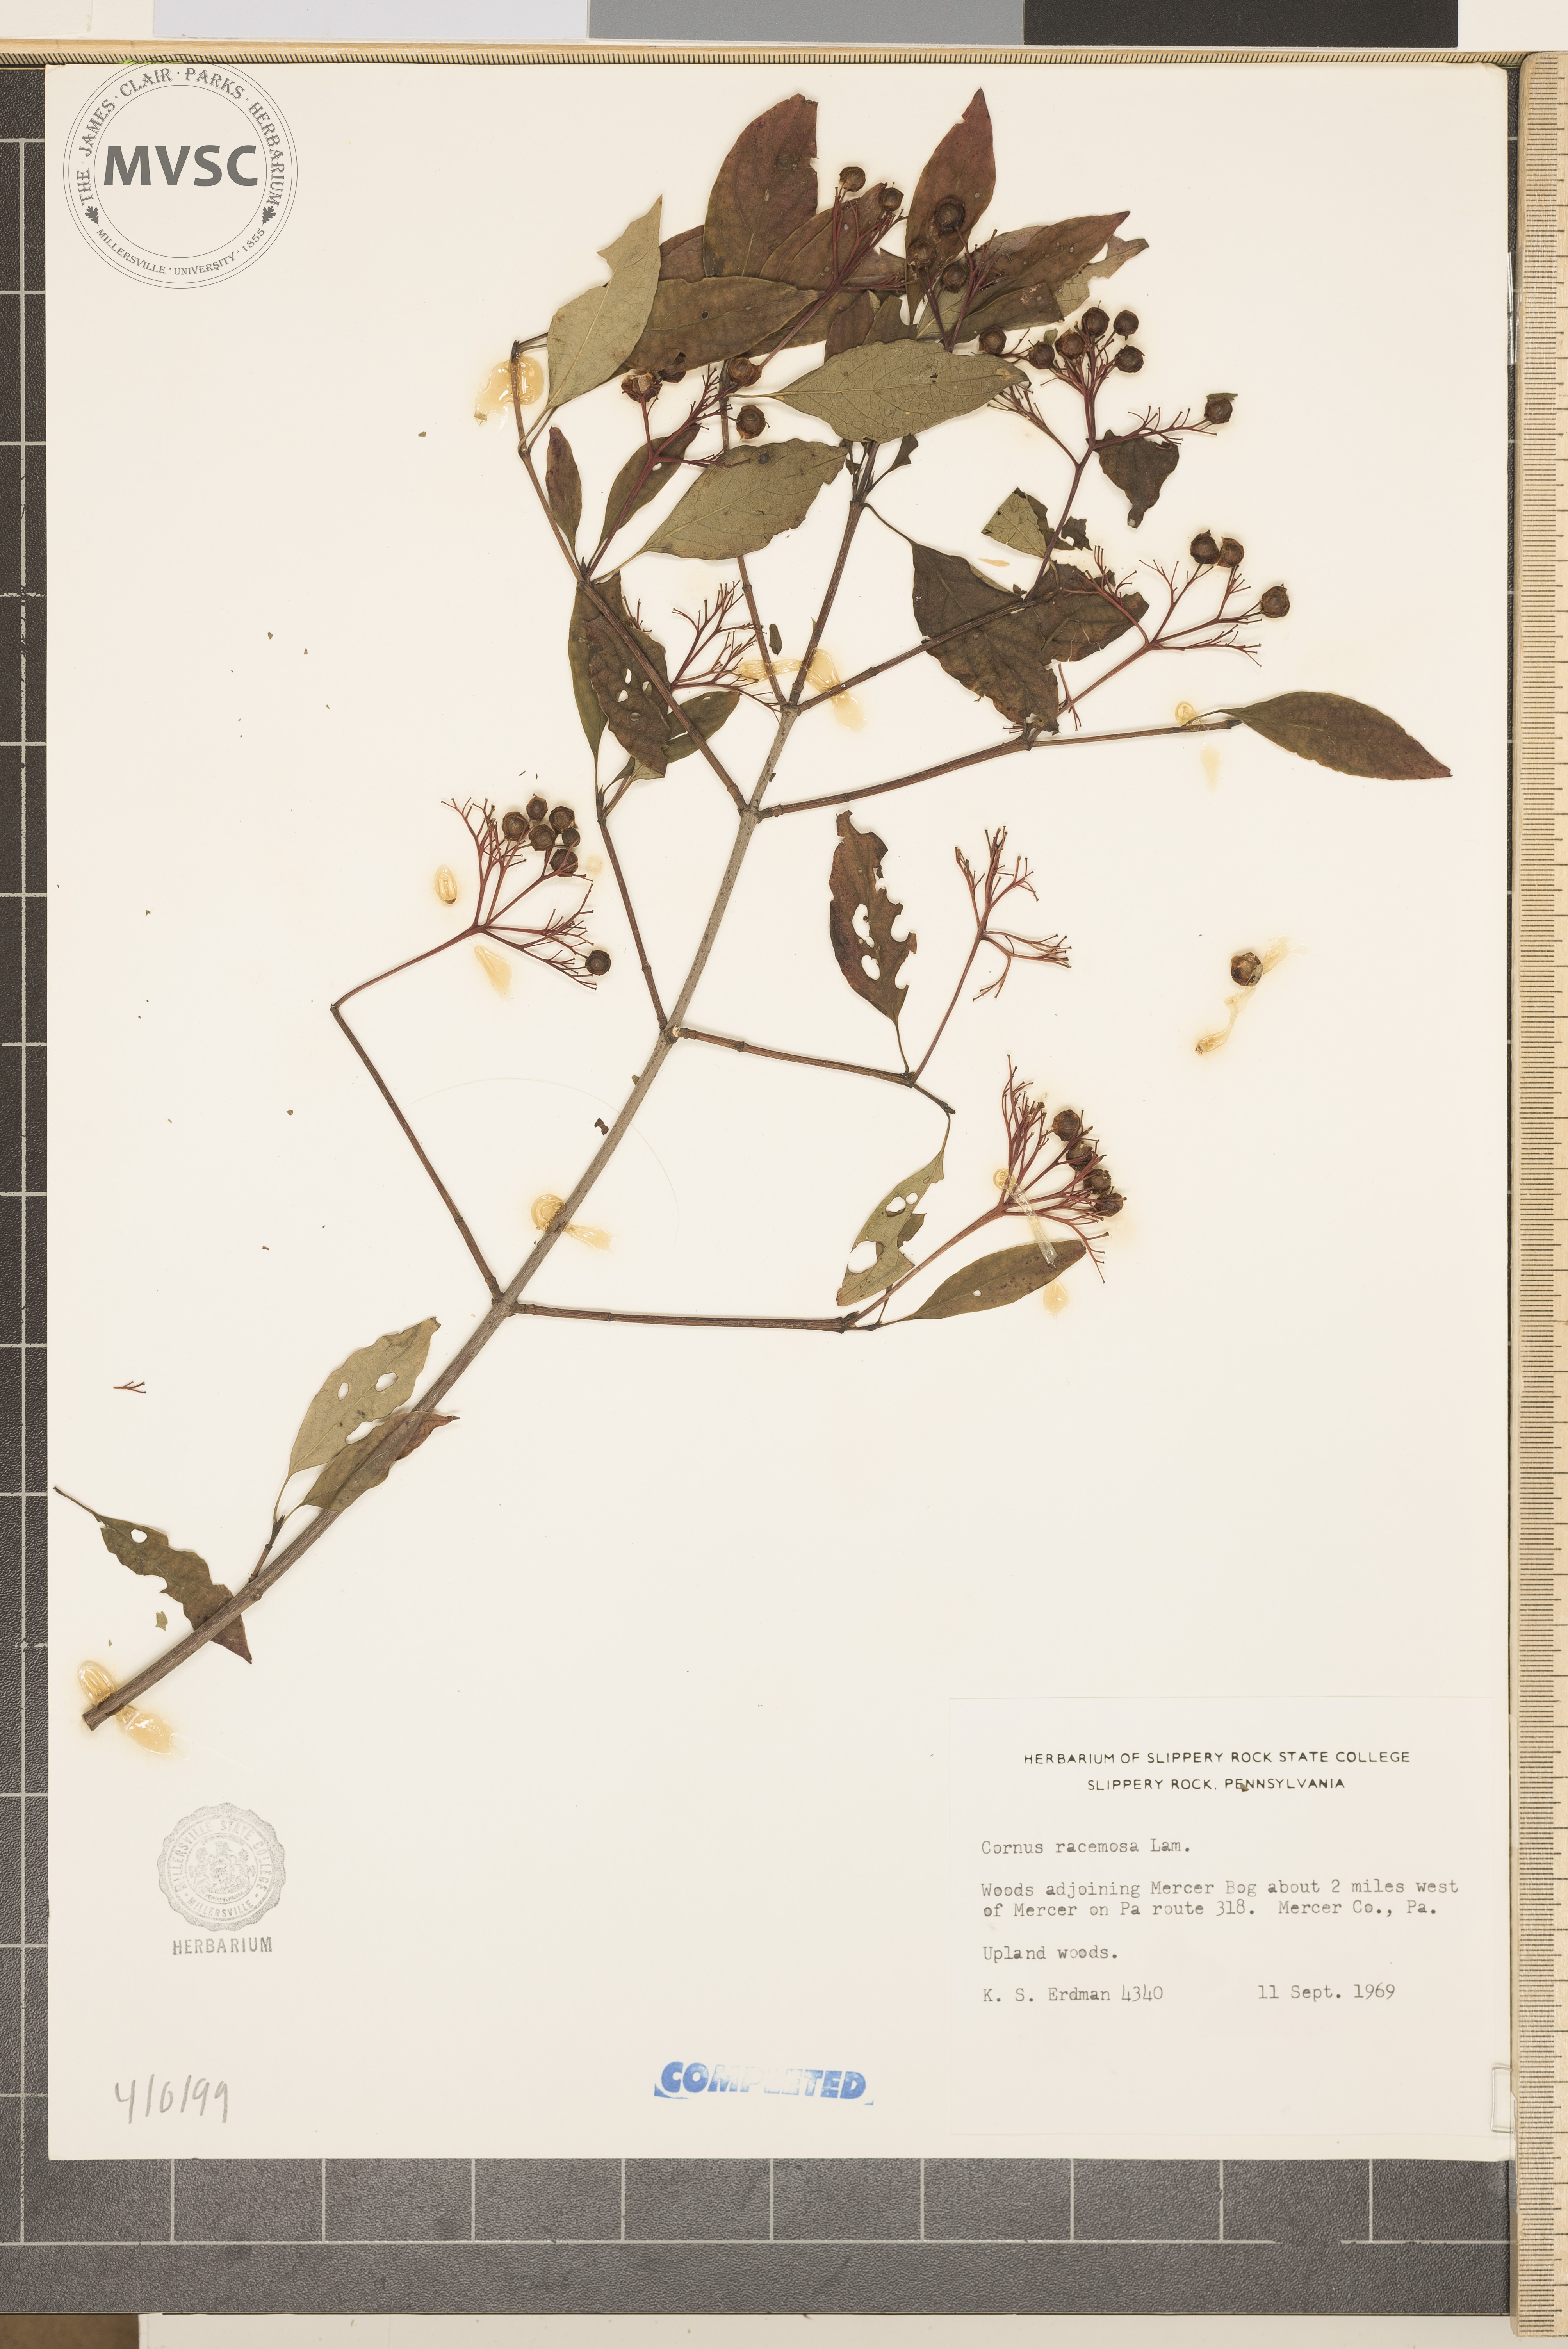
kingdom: Plantae
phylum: Tracheophyta
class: Magnoliopsida
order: Cornales
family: Cornaceae
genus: Cornus
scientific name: Cornus racemosa
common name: Gray dogwood
